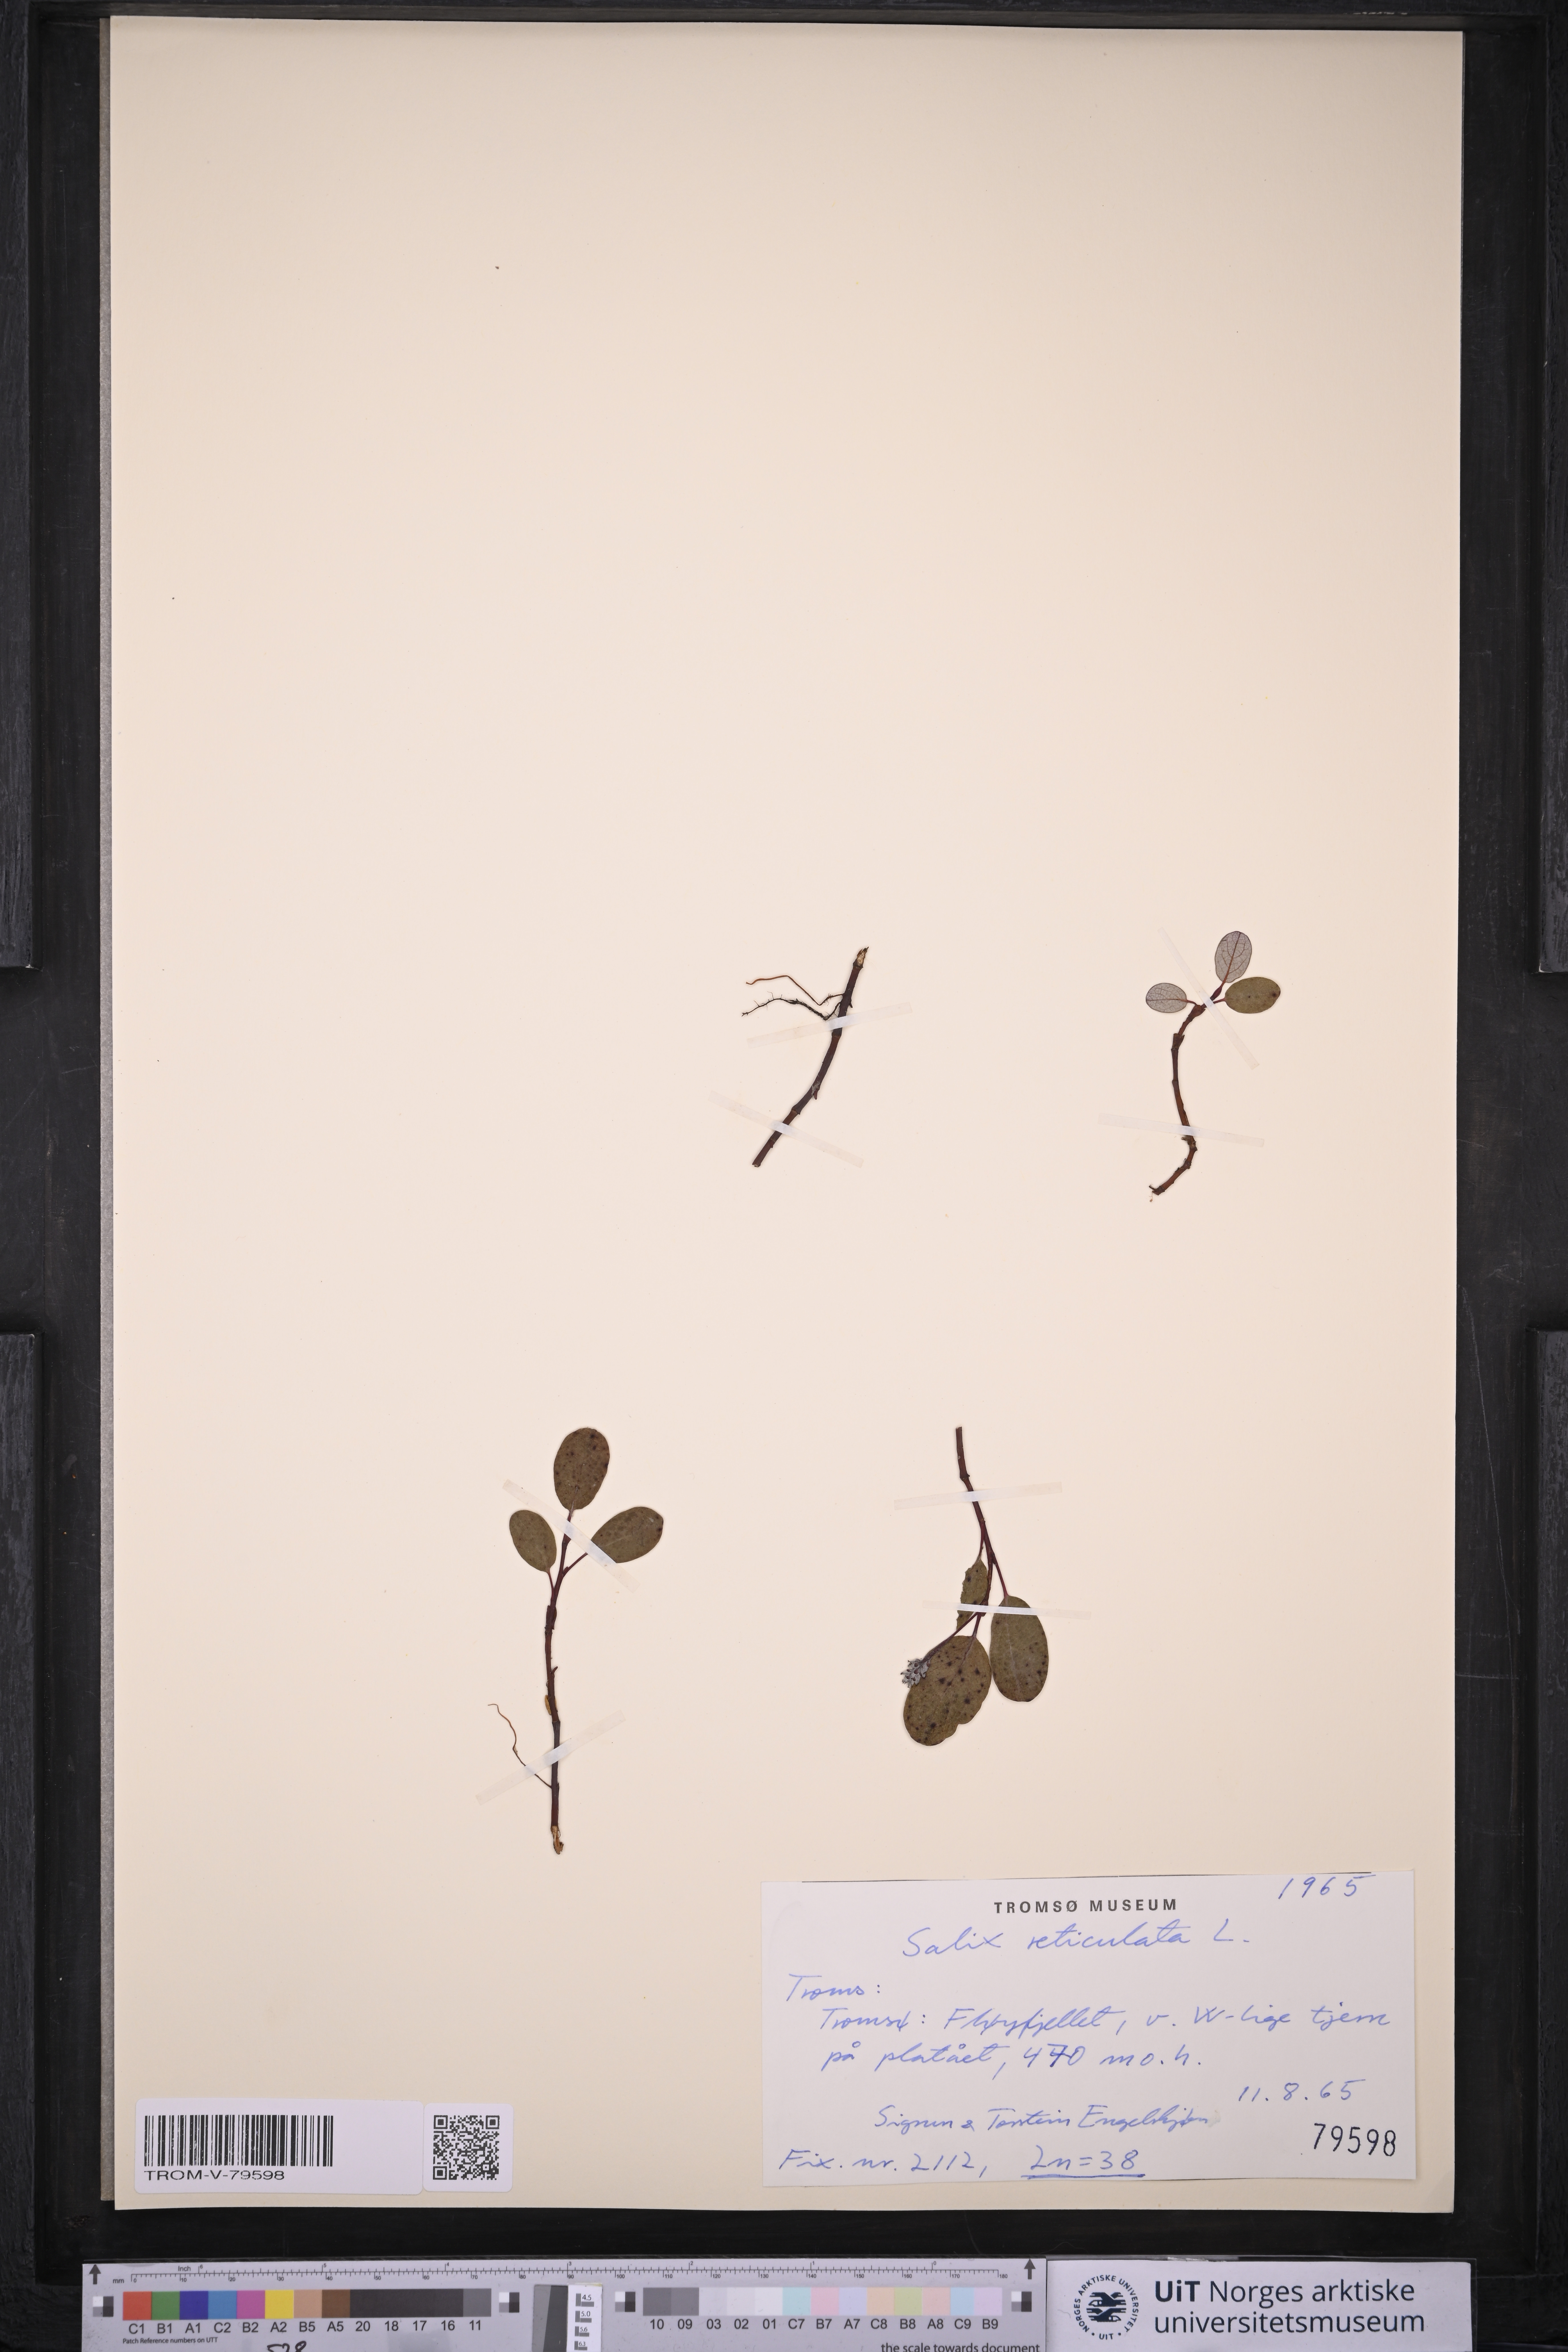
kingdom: Plantae
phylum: Tracheophyta
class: Magnoliopsida
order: Malpighiales
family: Salicaceae
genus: Salix
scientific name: Salix reticulata
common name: Net-leaved willow
